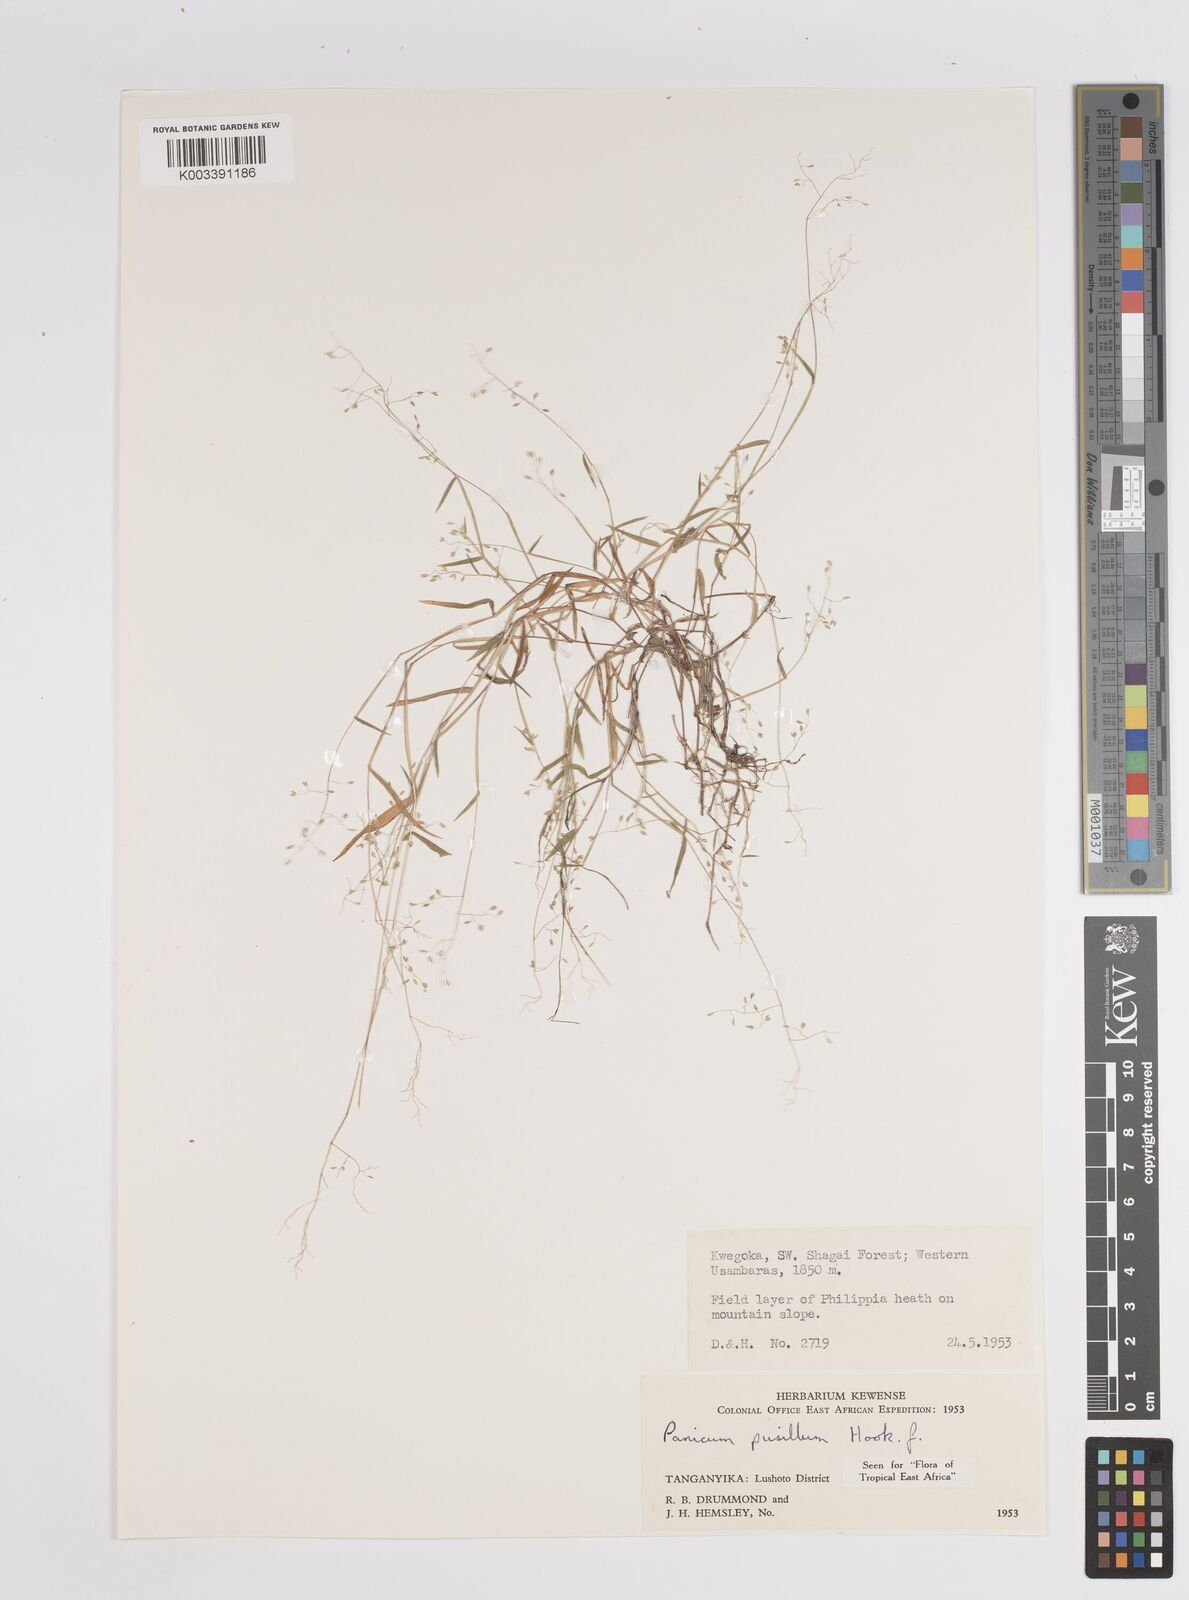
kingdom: Plantae
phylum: Tracheophyta
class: Liliopsida
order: Poales
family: Poaceae
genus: Panicum
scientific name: Panicum pusillum
